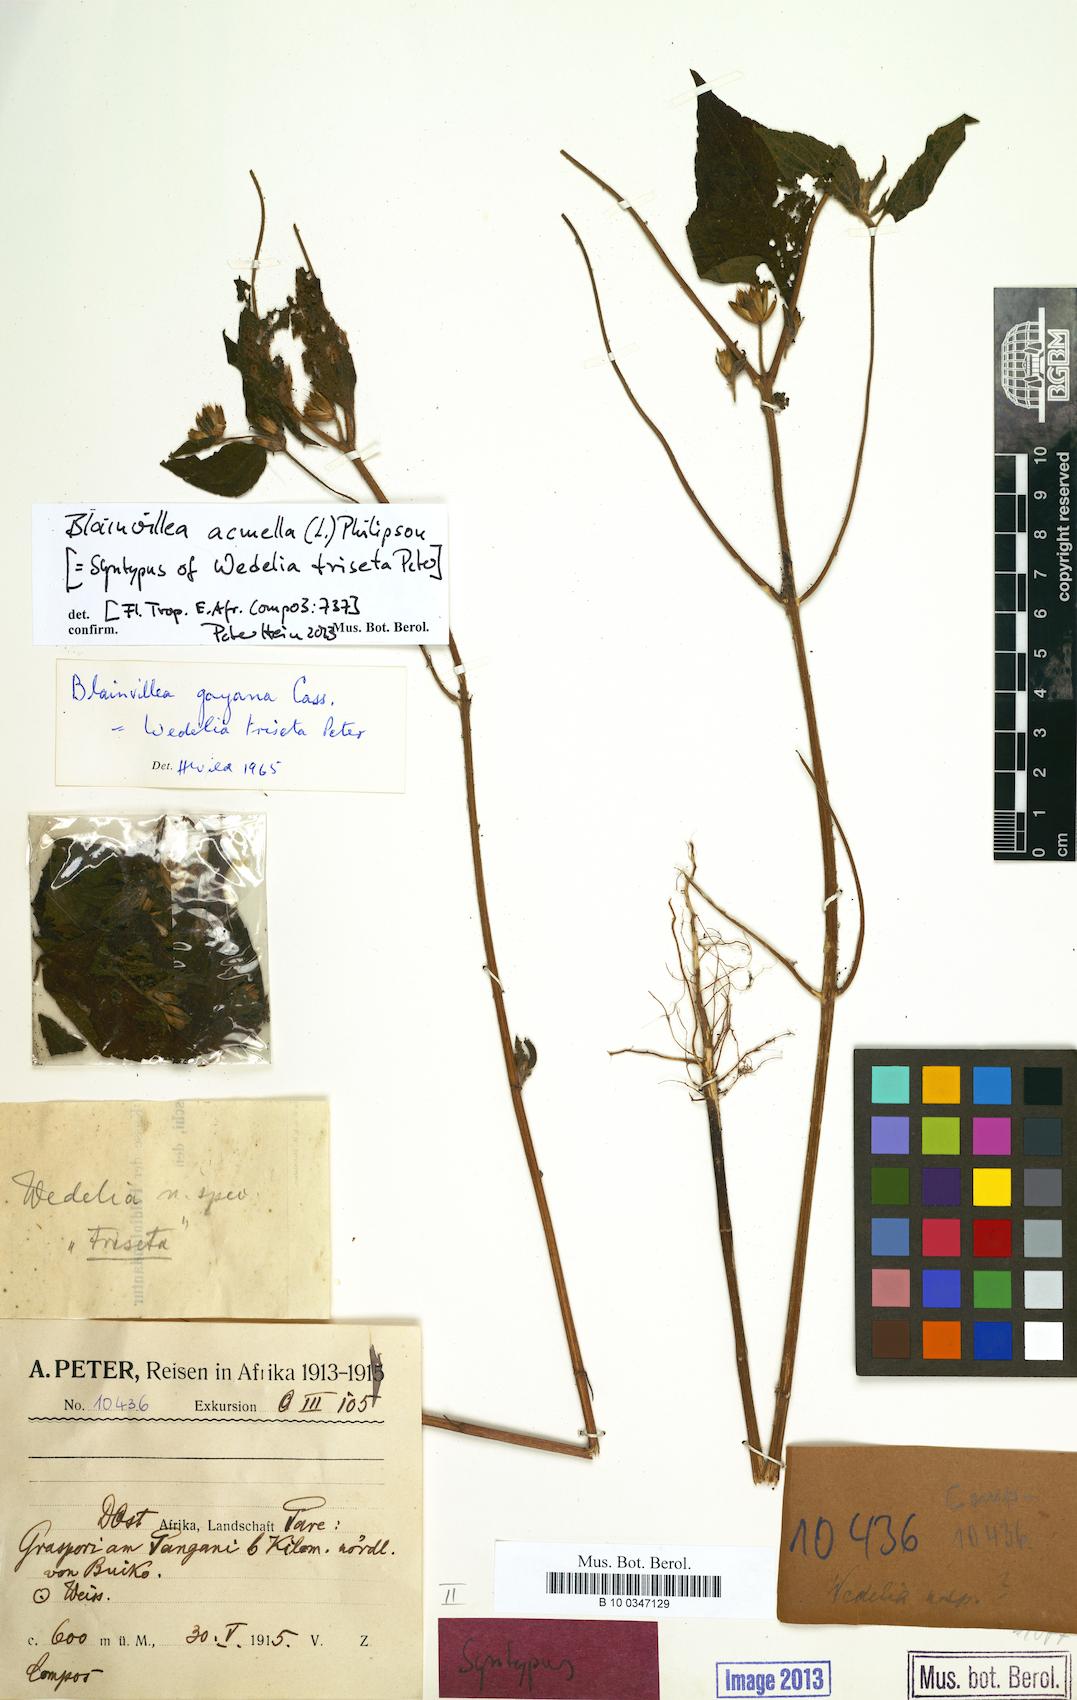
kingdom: Plantae
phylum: Tracheophyta
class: Magnoliopsida
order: Asterales
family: Asteraceae
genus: Blainvillea
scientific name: Blainvillea acmella
